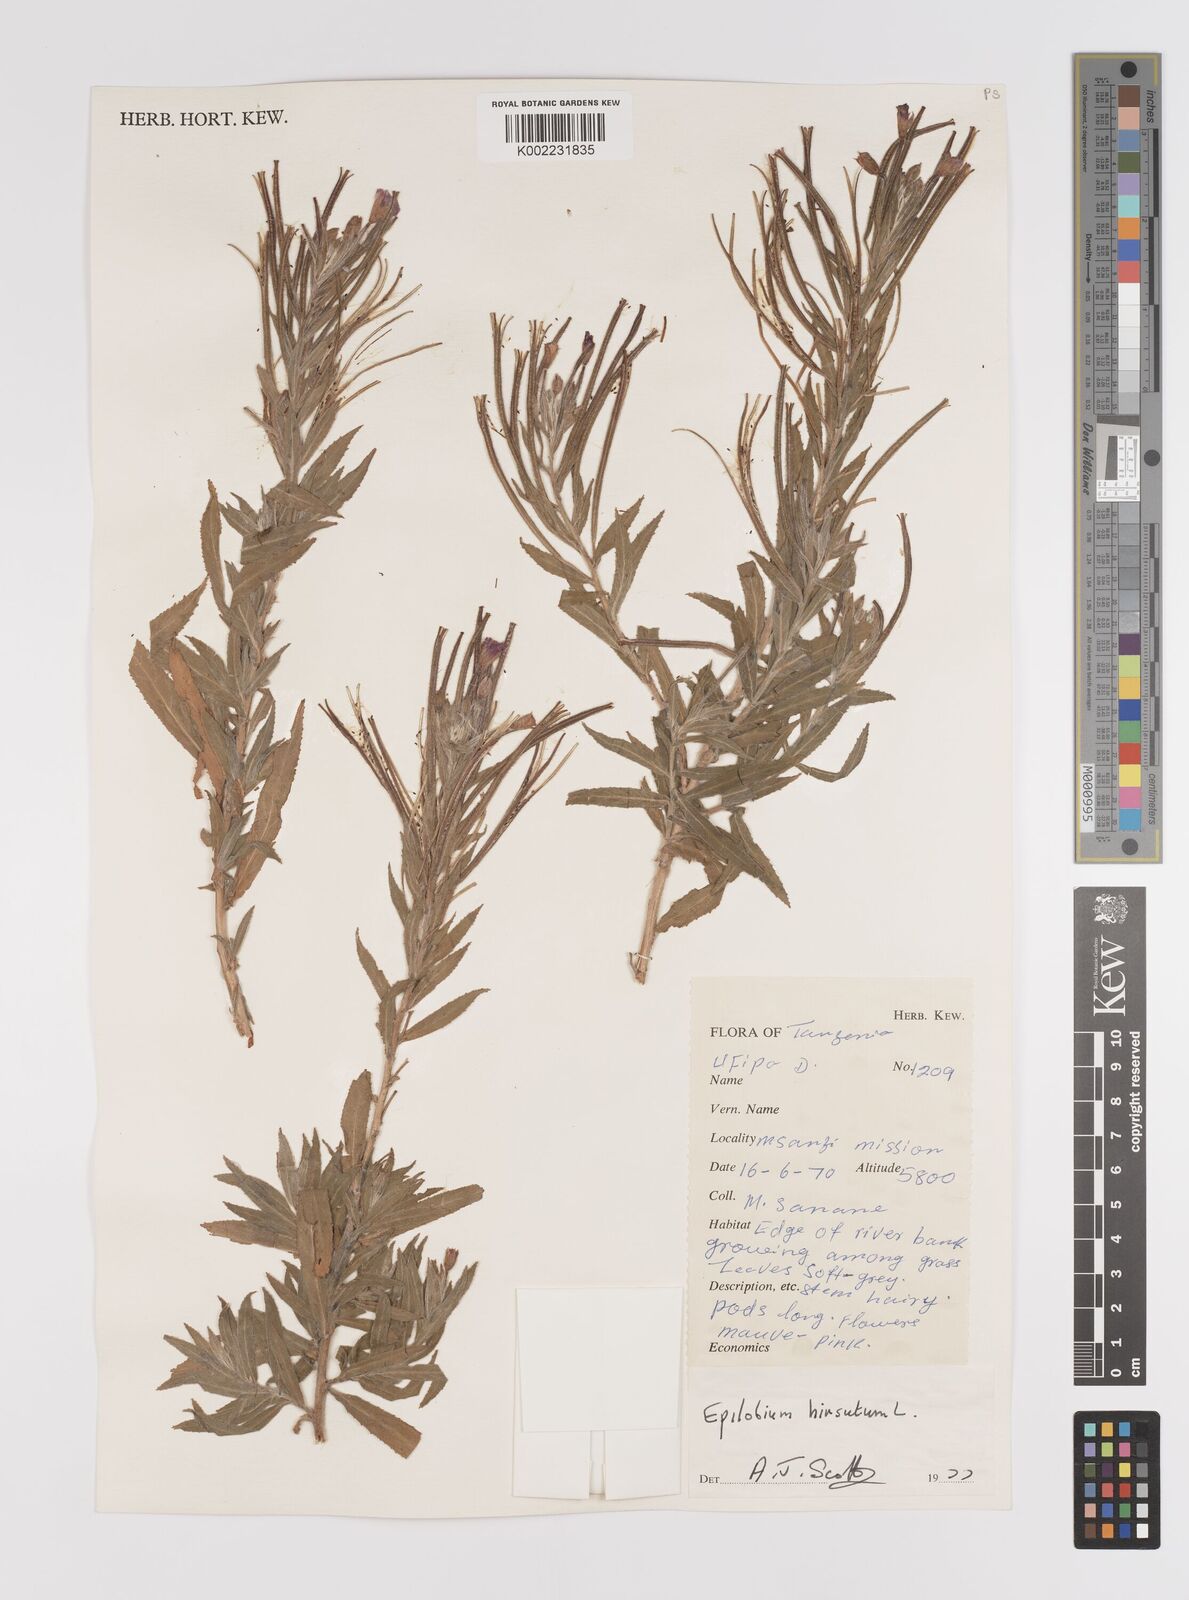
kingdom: Plantae
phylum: Tracheophyta
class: Magnoliopsida
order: Myrtales
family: Onagraceae
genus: Epilobium
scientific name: Epilobium hirsutum
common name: Great willowherb
